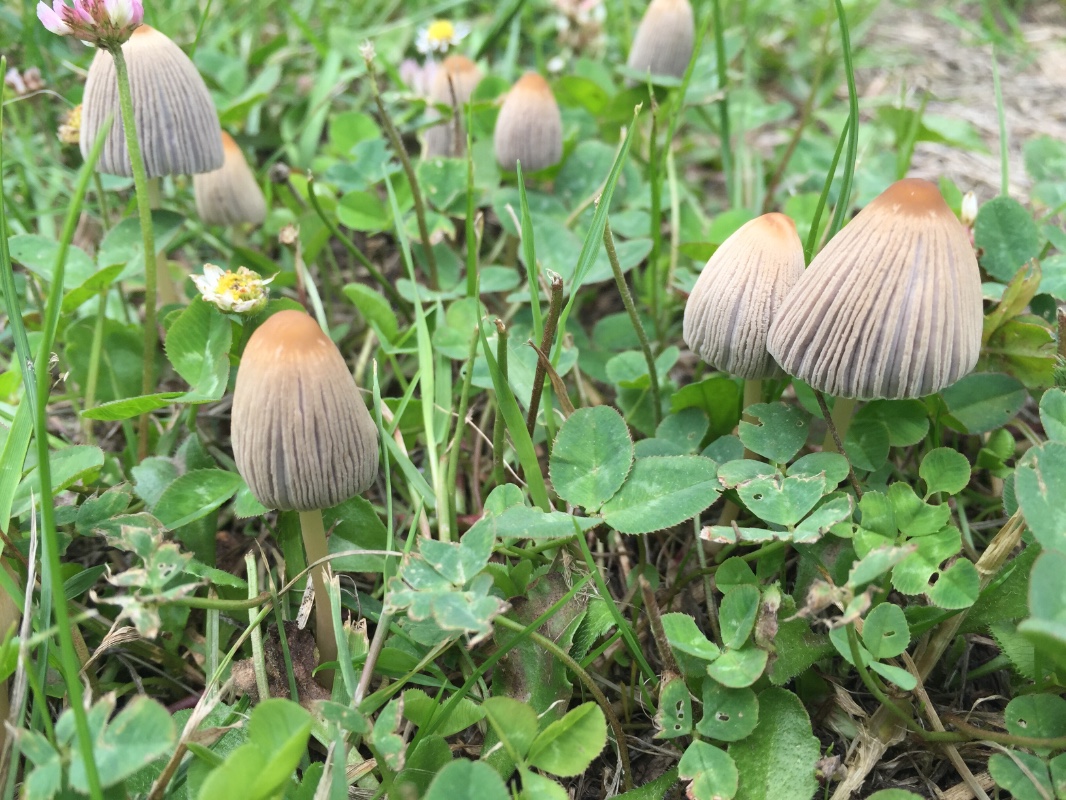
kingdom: Fungi
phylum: Basidiomycota
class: Agaricomycetes
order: Agaricales
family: Psathyrellaceae
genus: Parasola
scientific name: Parasola
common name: hjulhat
